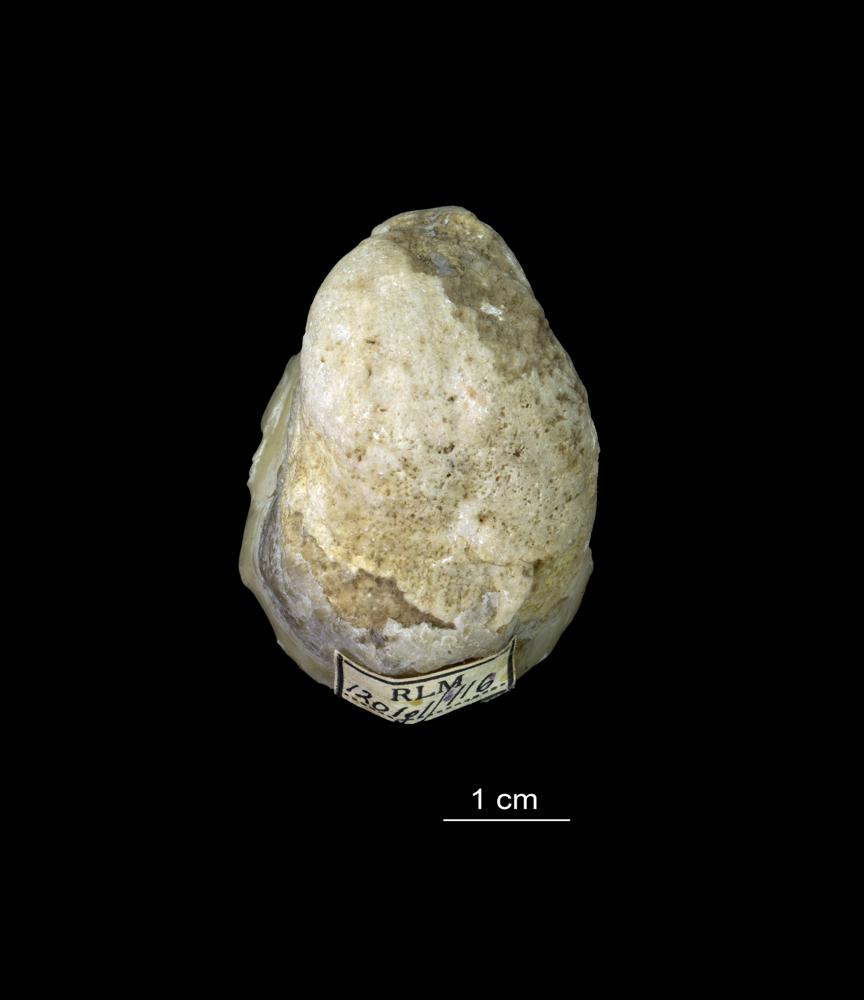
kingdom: Animalia
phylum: Brachiopoda
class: Rhynchonellata
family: Virgianidae
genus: Borealis
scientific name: Borealis Gypidula borealis
